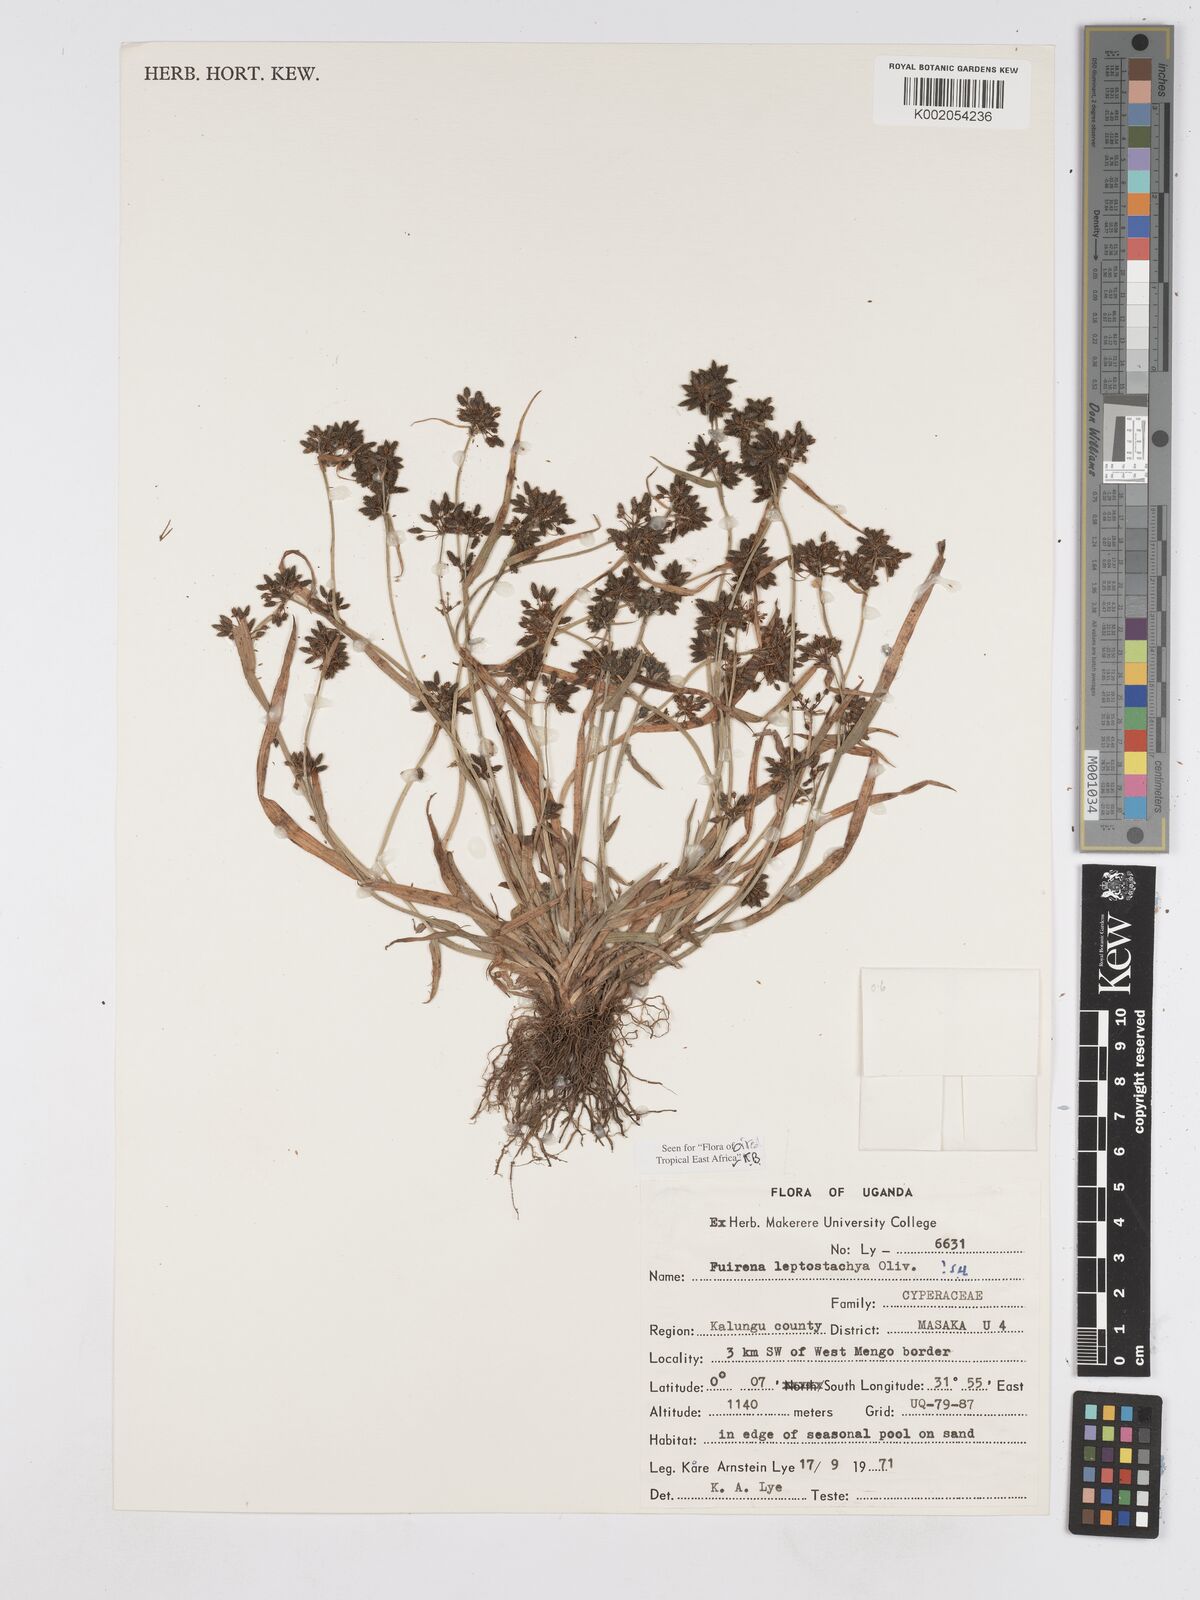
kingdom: Plantae
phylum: Tracheophyta
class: Liliopsida
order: Poales
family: Cyperaceae
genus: Fuirena
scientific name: Fuirena leptostachya
